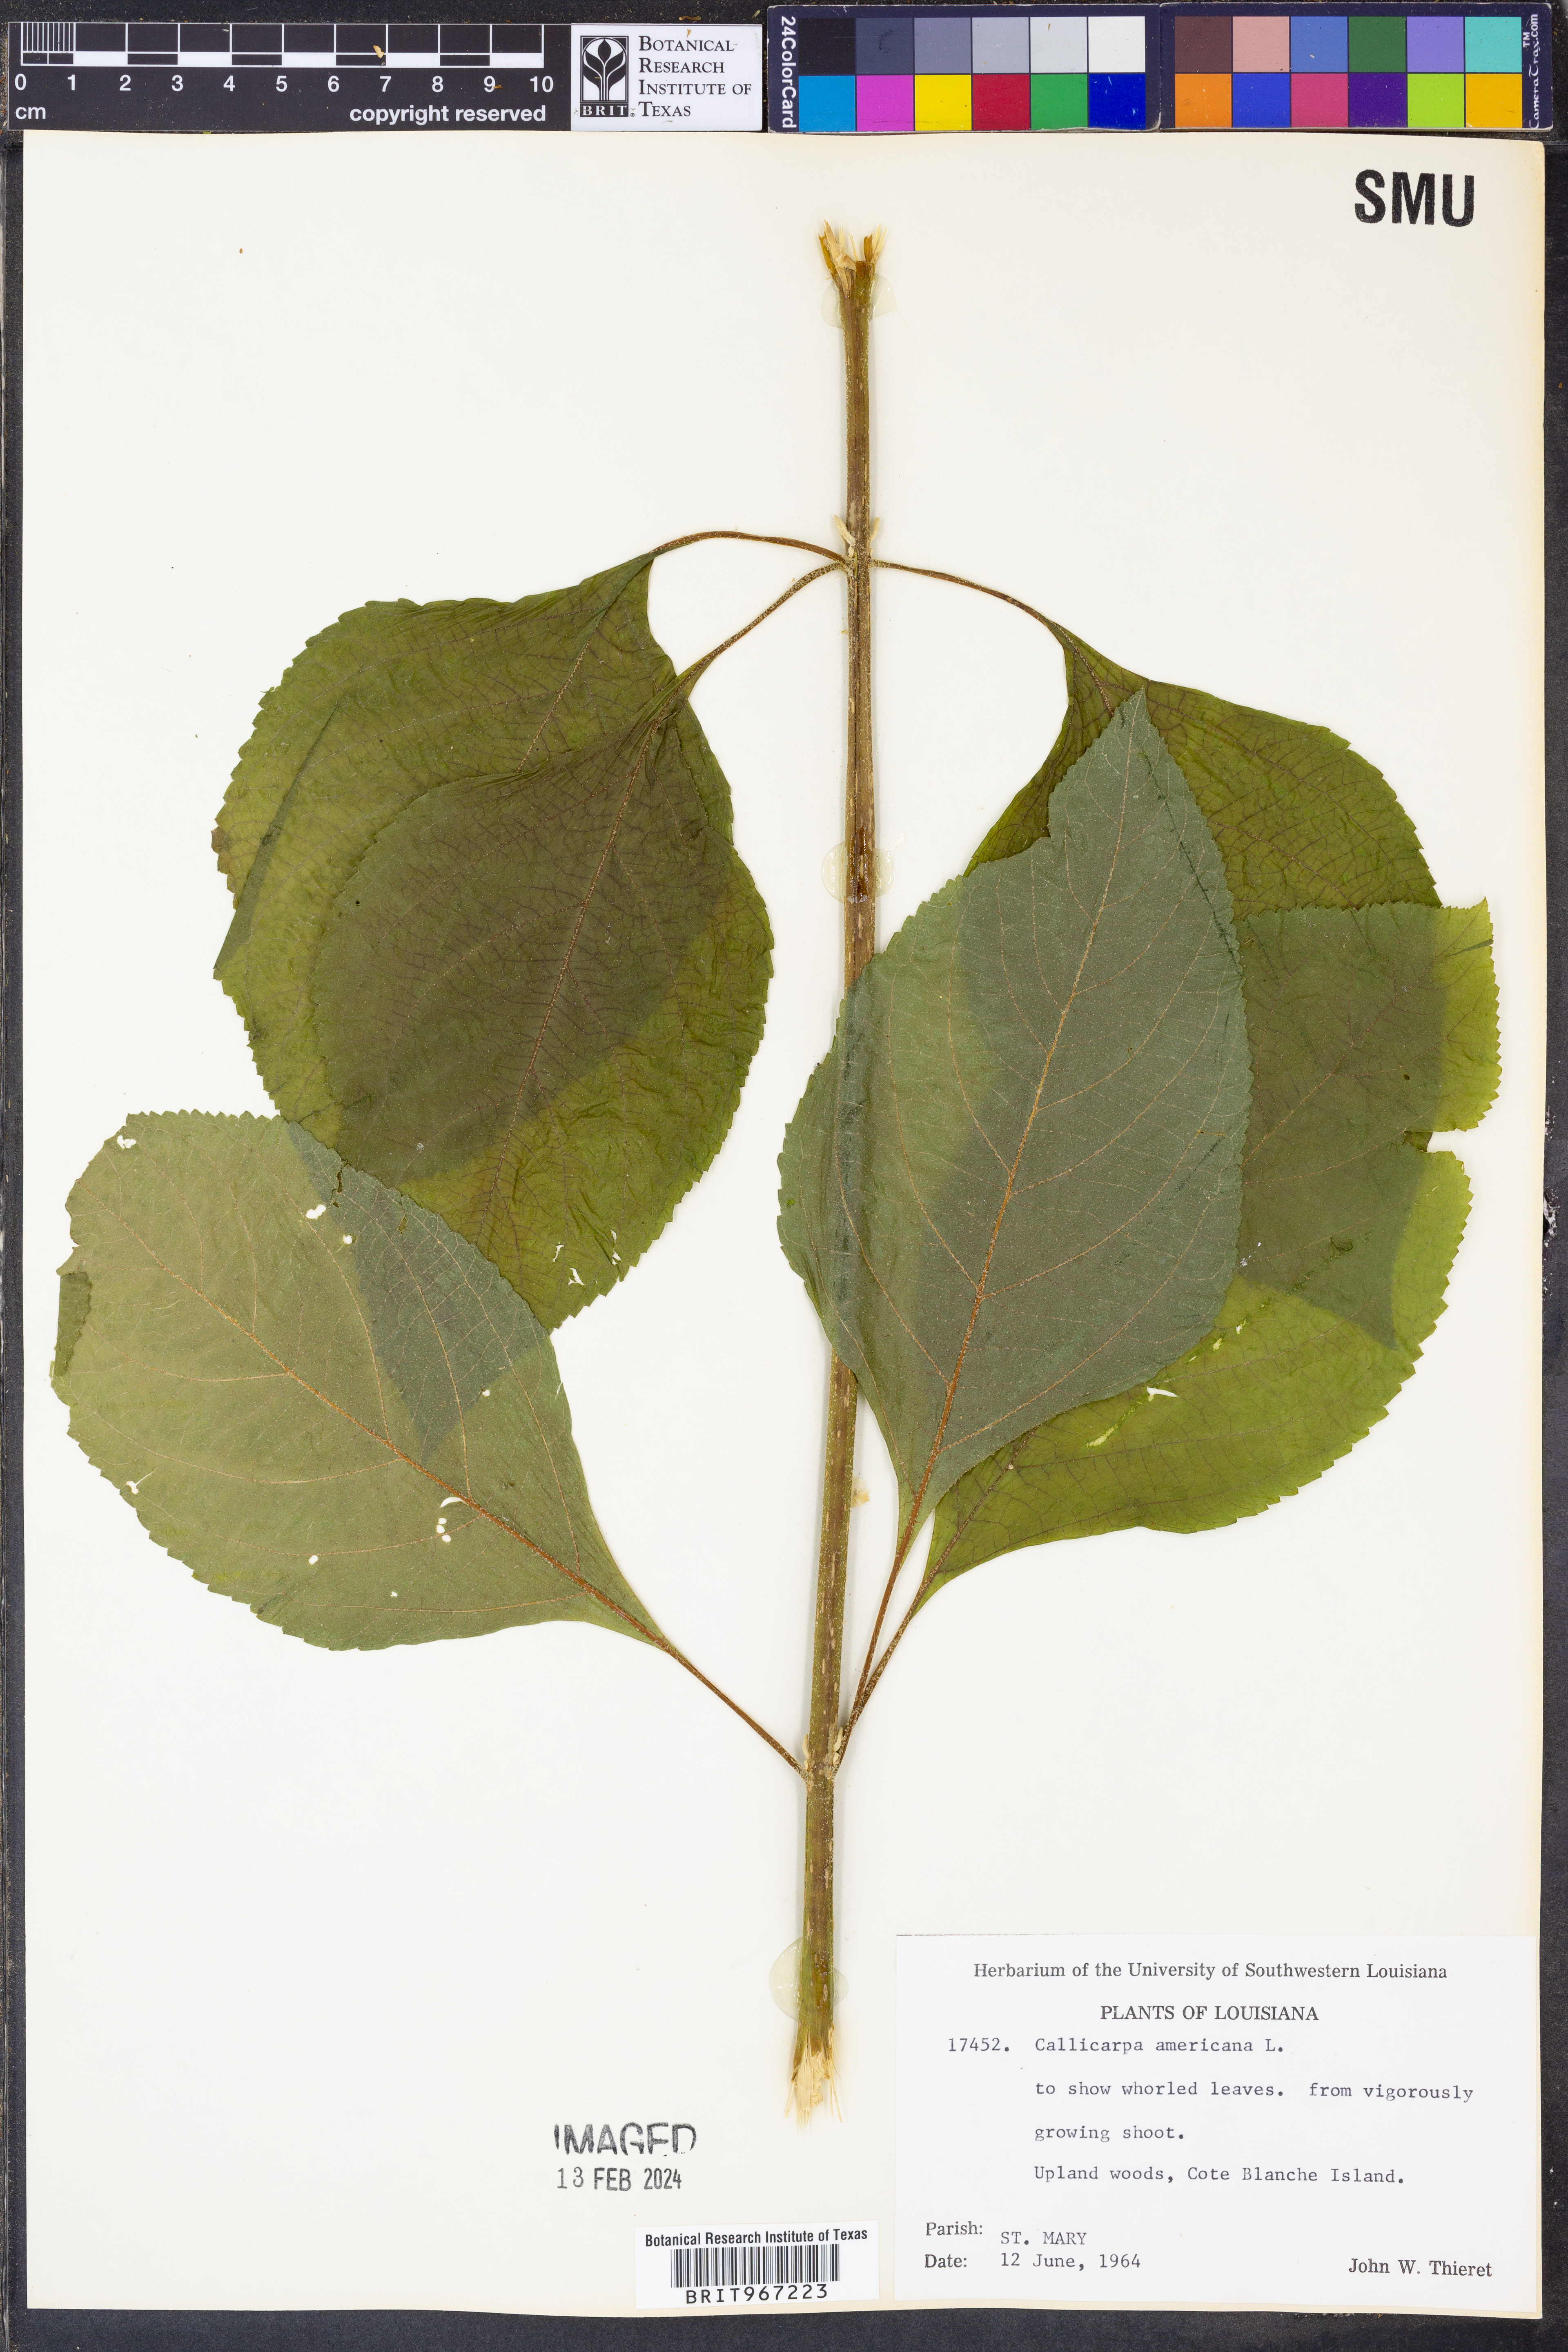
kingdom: Plantae
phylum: Tracheophyta
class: Magnoliopsida
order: Lamiales
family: Lamiaceae
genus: Callicarpa
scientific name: Callicarpa americana
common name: American beautyberry
